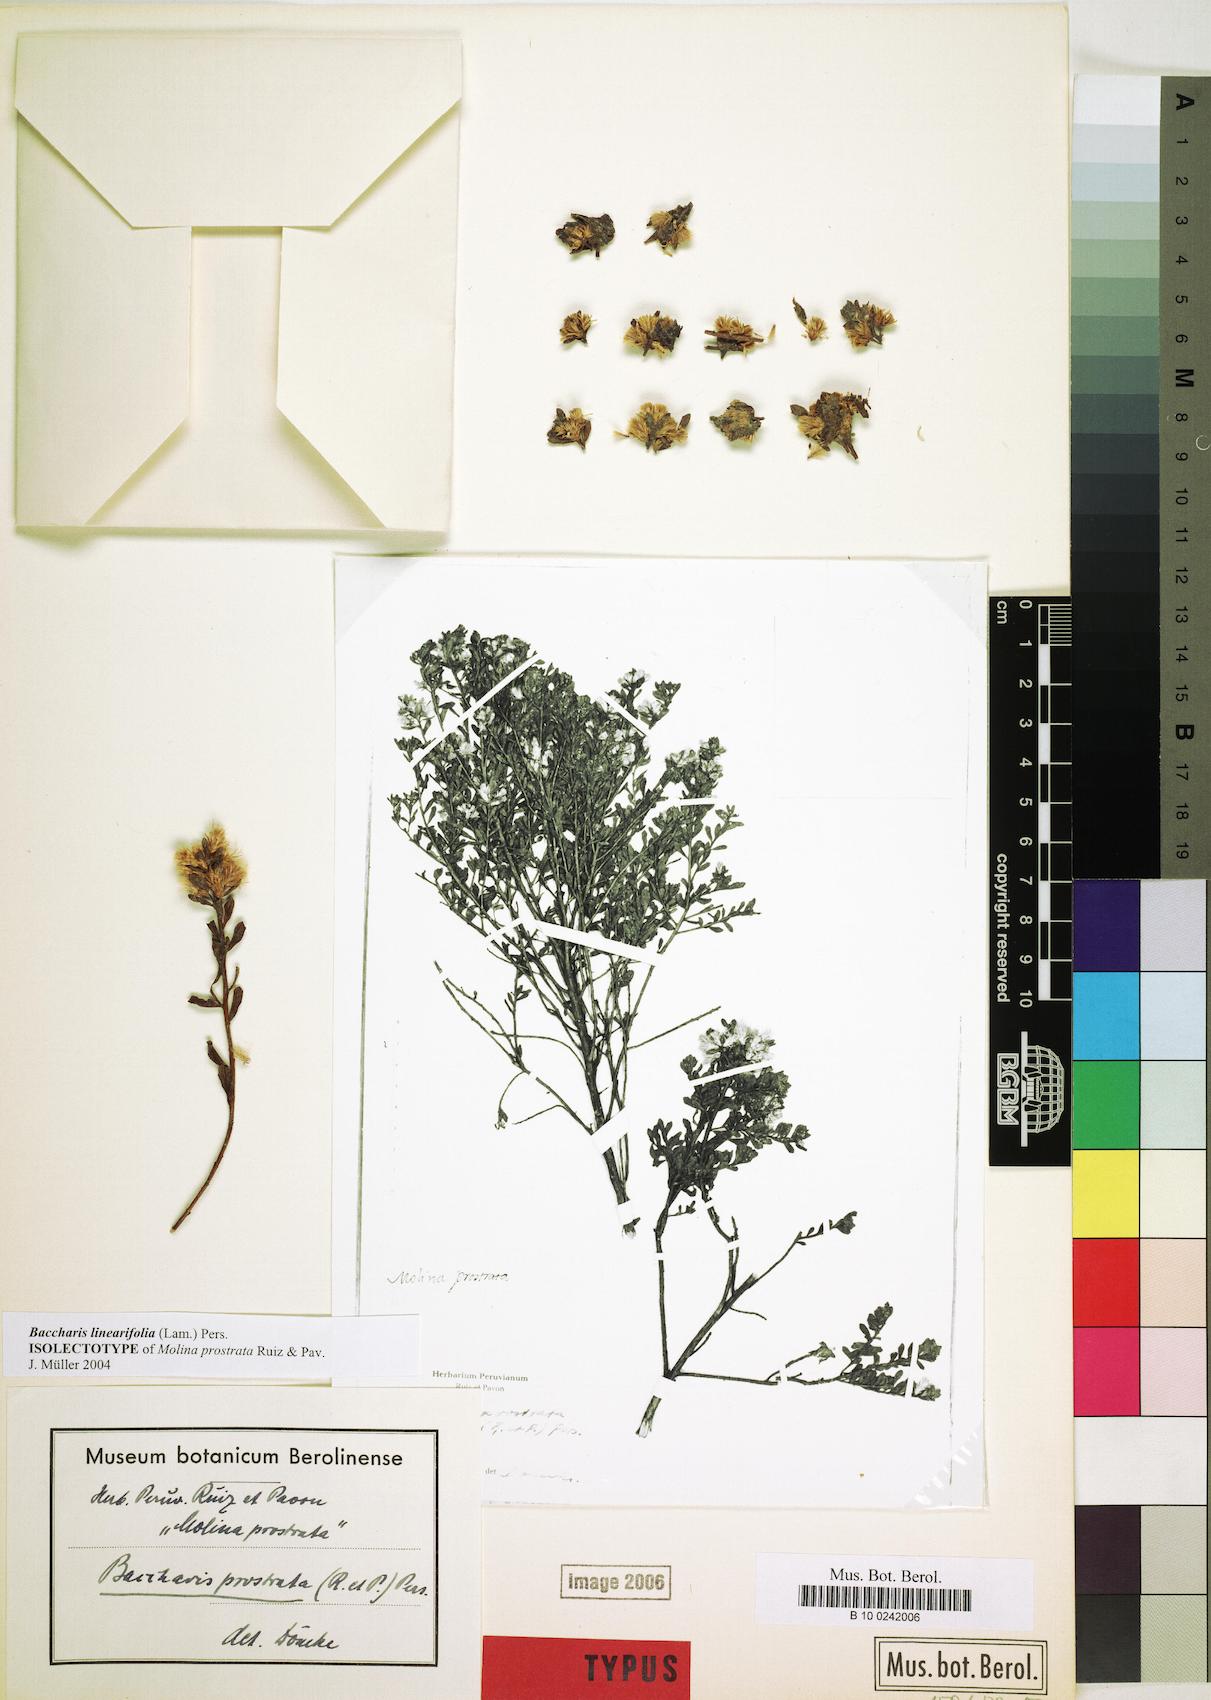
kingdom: Plantae
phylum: Tracheophyta
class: Magnoliopsida
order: Asterales
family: Asteraceae
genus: Baccharis
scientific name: Baccharis linearifolia
